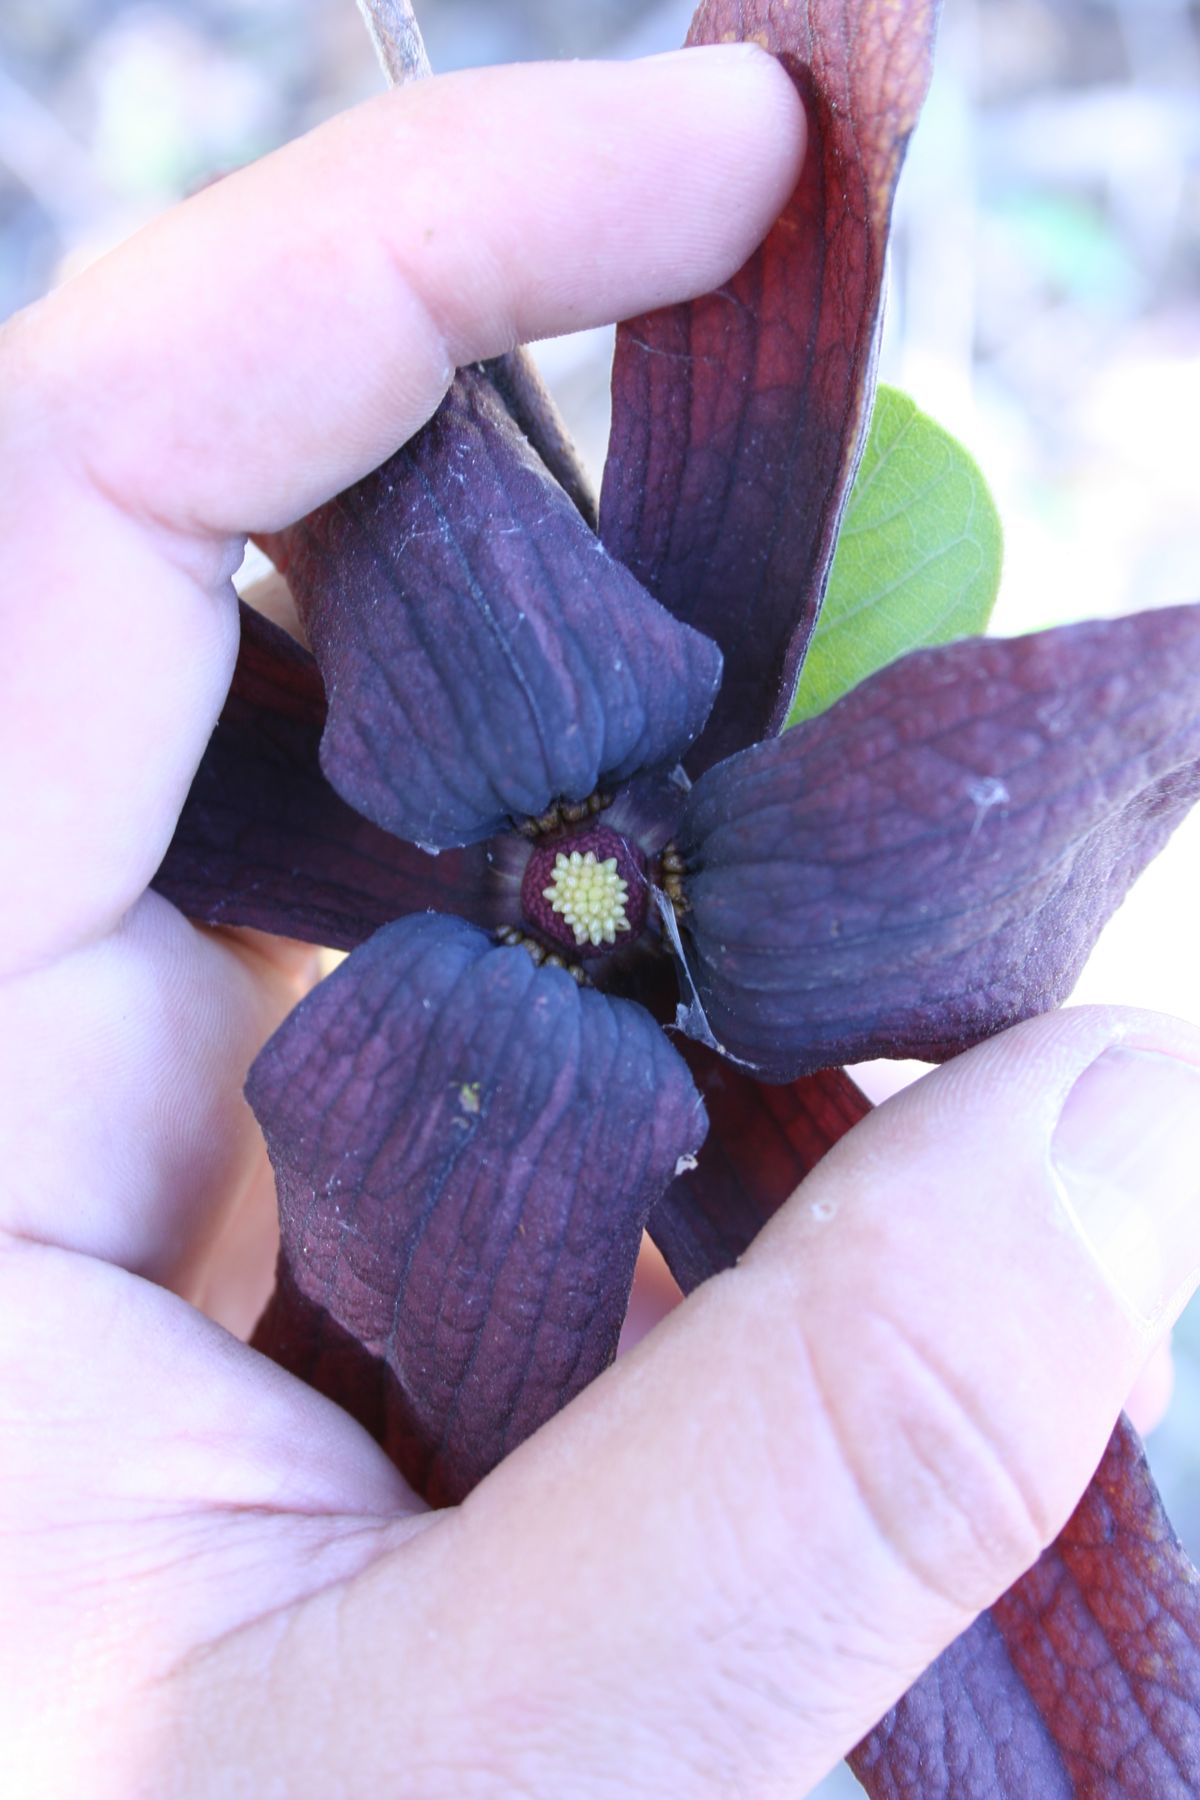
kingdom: Plantae
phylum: Tracheophyta
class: Magnoliopsida
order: Magnoliales
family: Annonaceae
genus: Sapranthus
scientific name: Sapranthus violaceus
